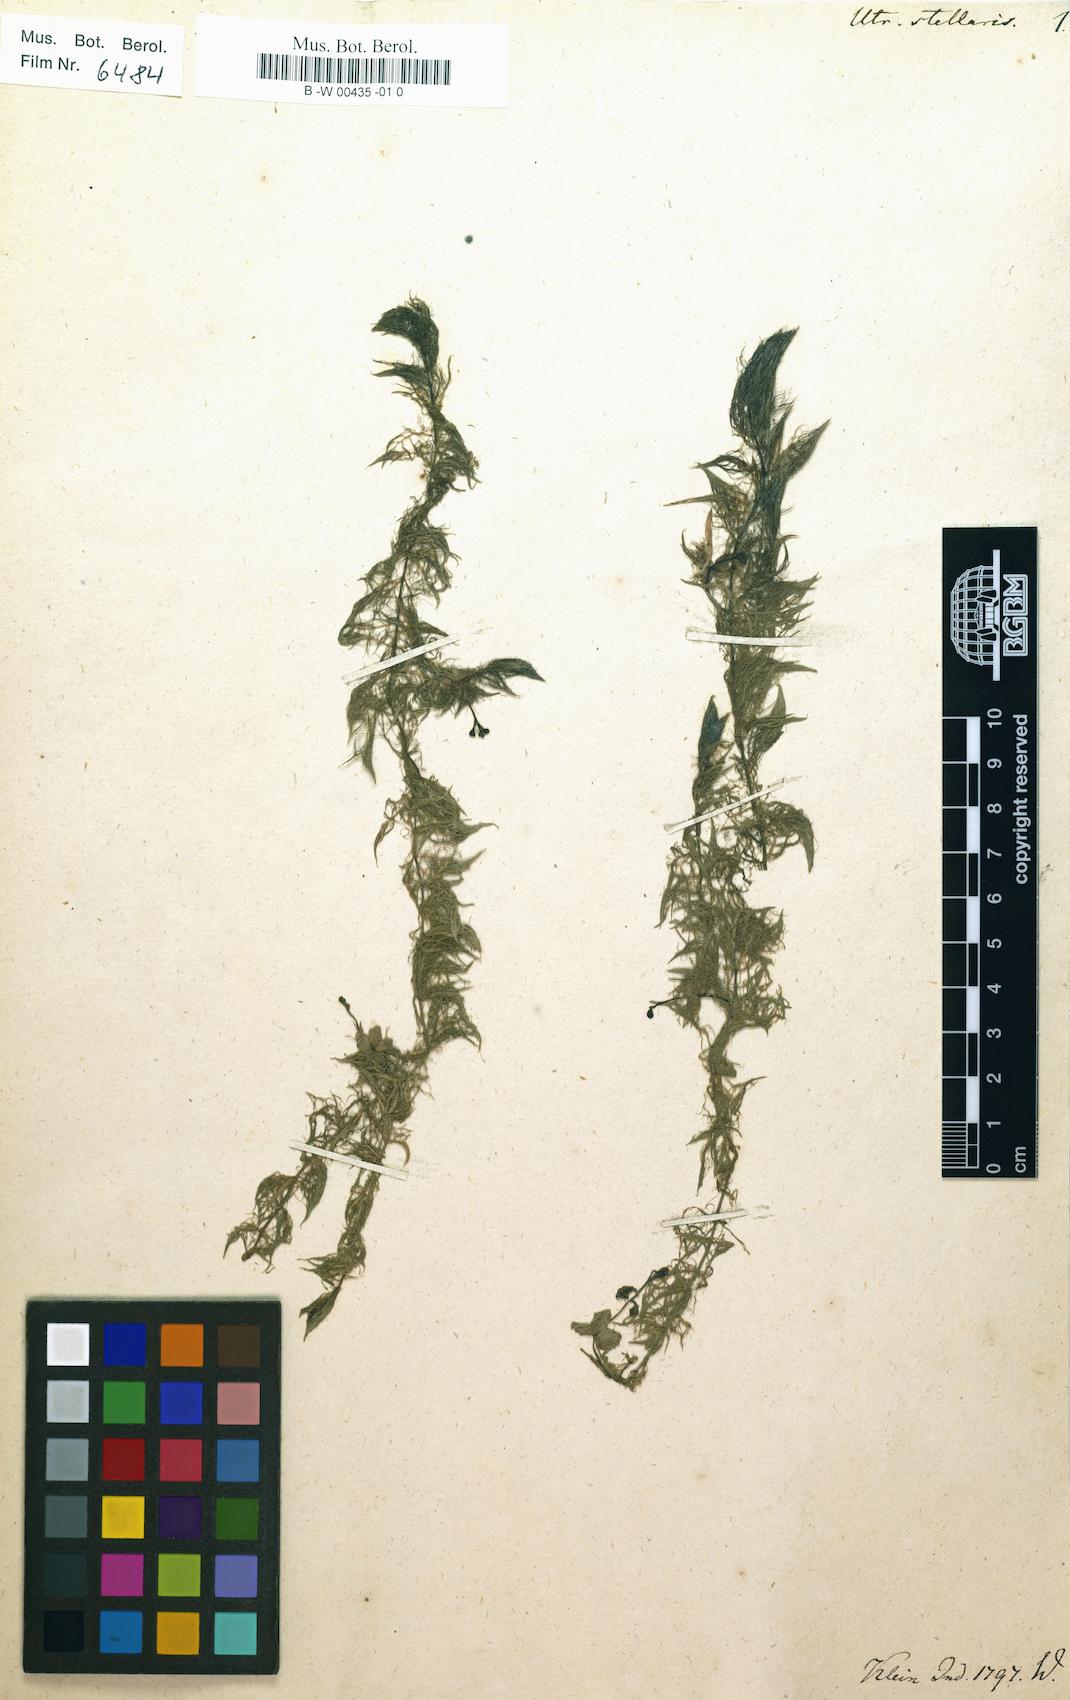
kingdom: Plantae
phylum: Tracheophyta
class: Magnoliopsida
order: Lamiales
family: Lentibulariaceae
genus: Utricularia
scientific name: Utricularia stellaris
